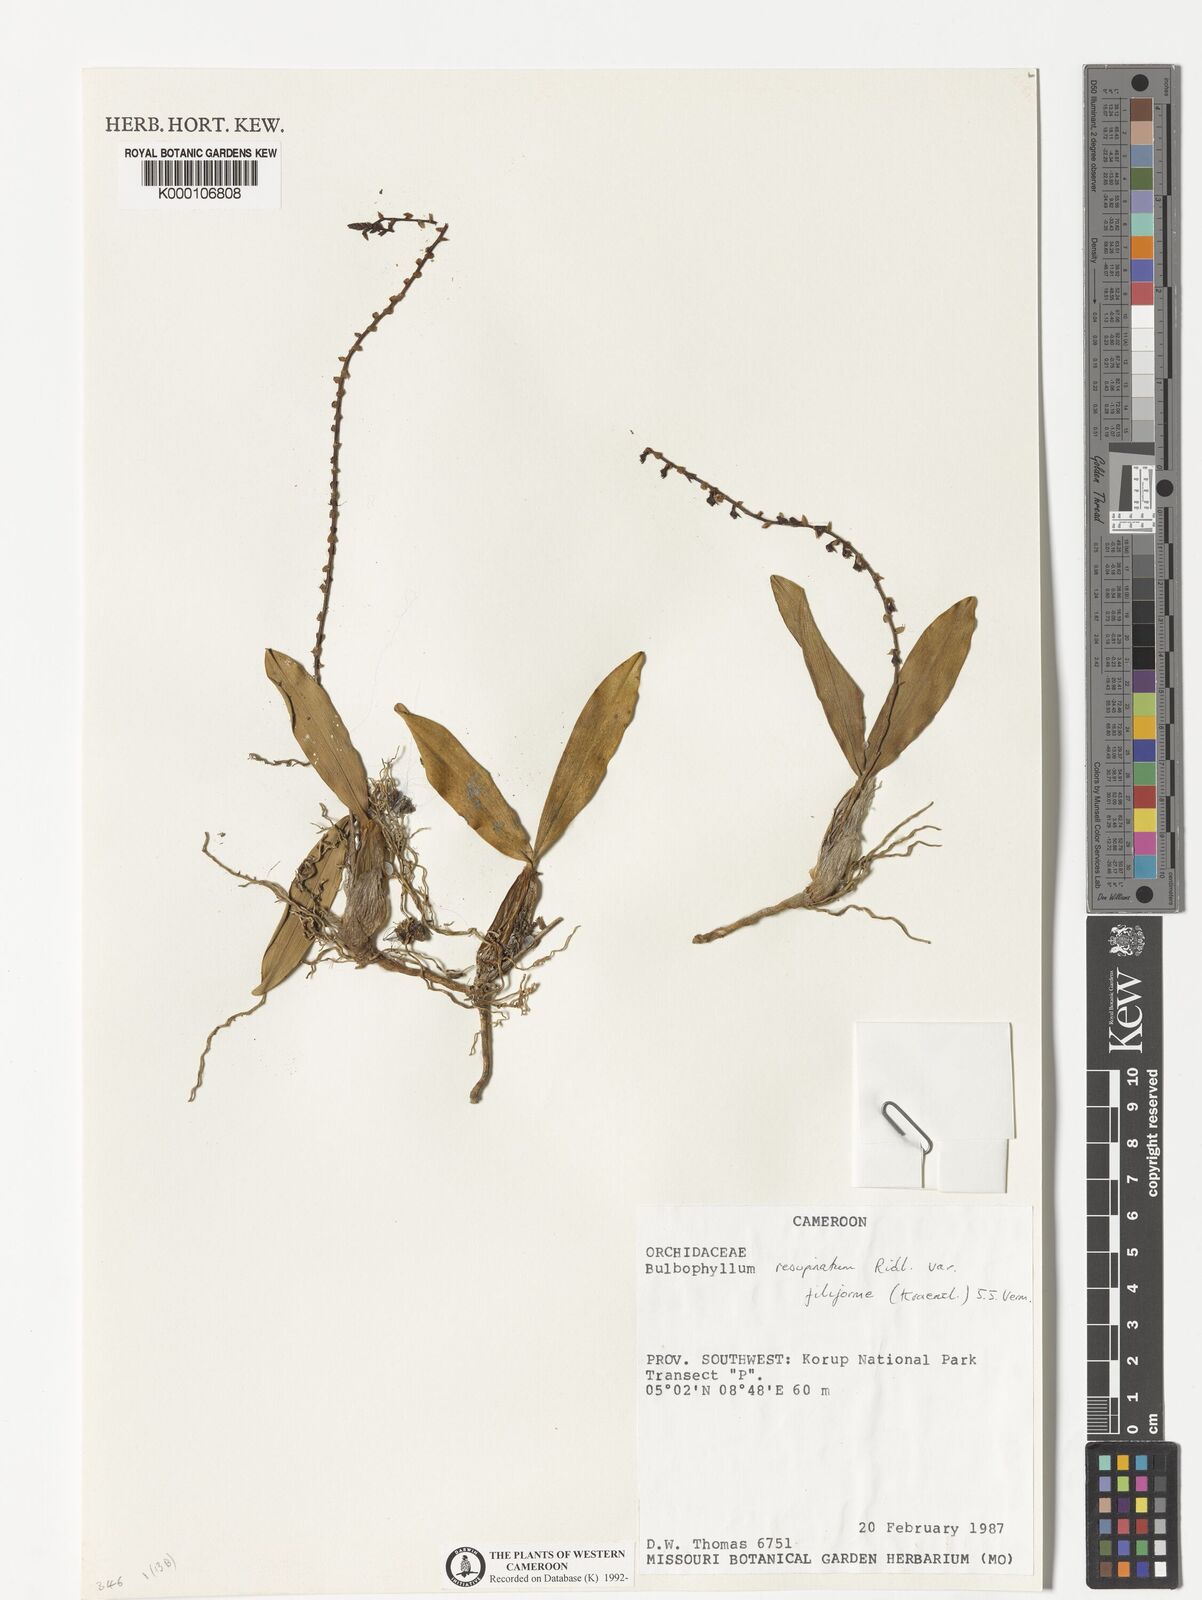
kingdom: Plantae
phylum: Tracheophyta
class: Liliopsida
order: Asparagales
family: Orchidaceae
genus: Bulbophyllum
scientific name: Bulbophyllum resupinatum
